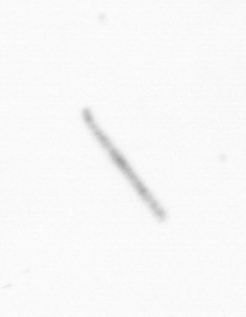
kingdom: Chromista
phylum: Ochrophyta
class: Bacillariophyceae
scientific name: Bacillariophyceae
